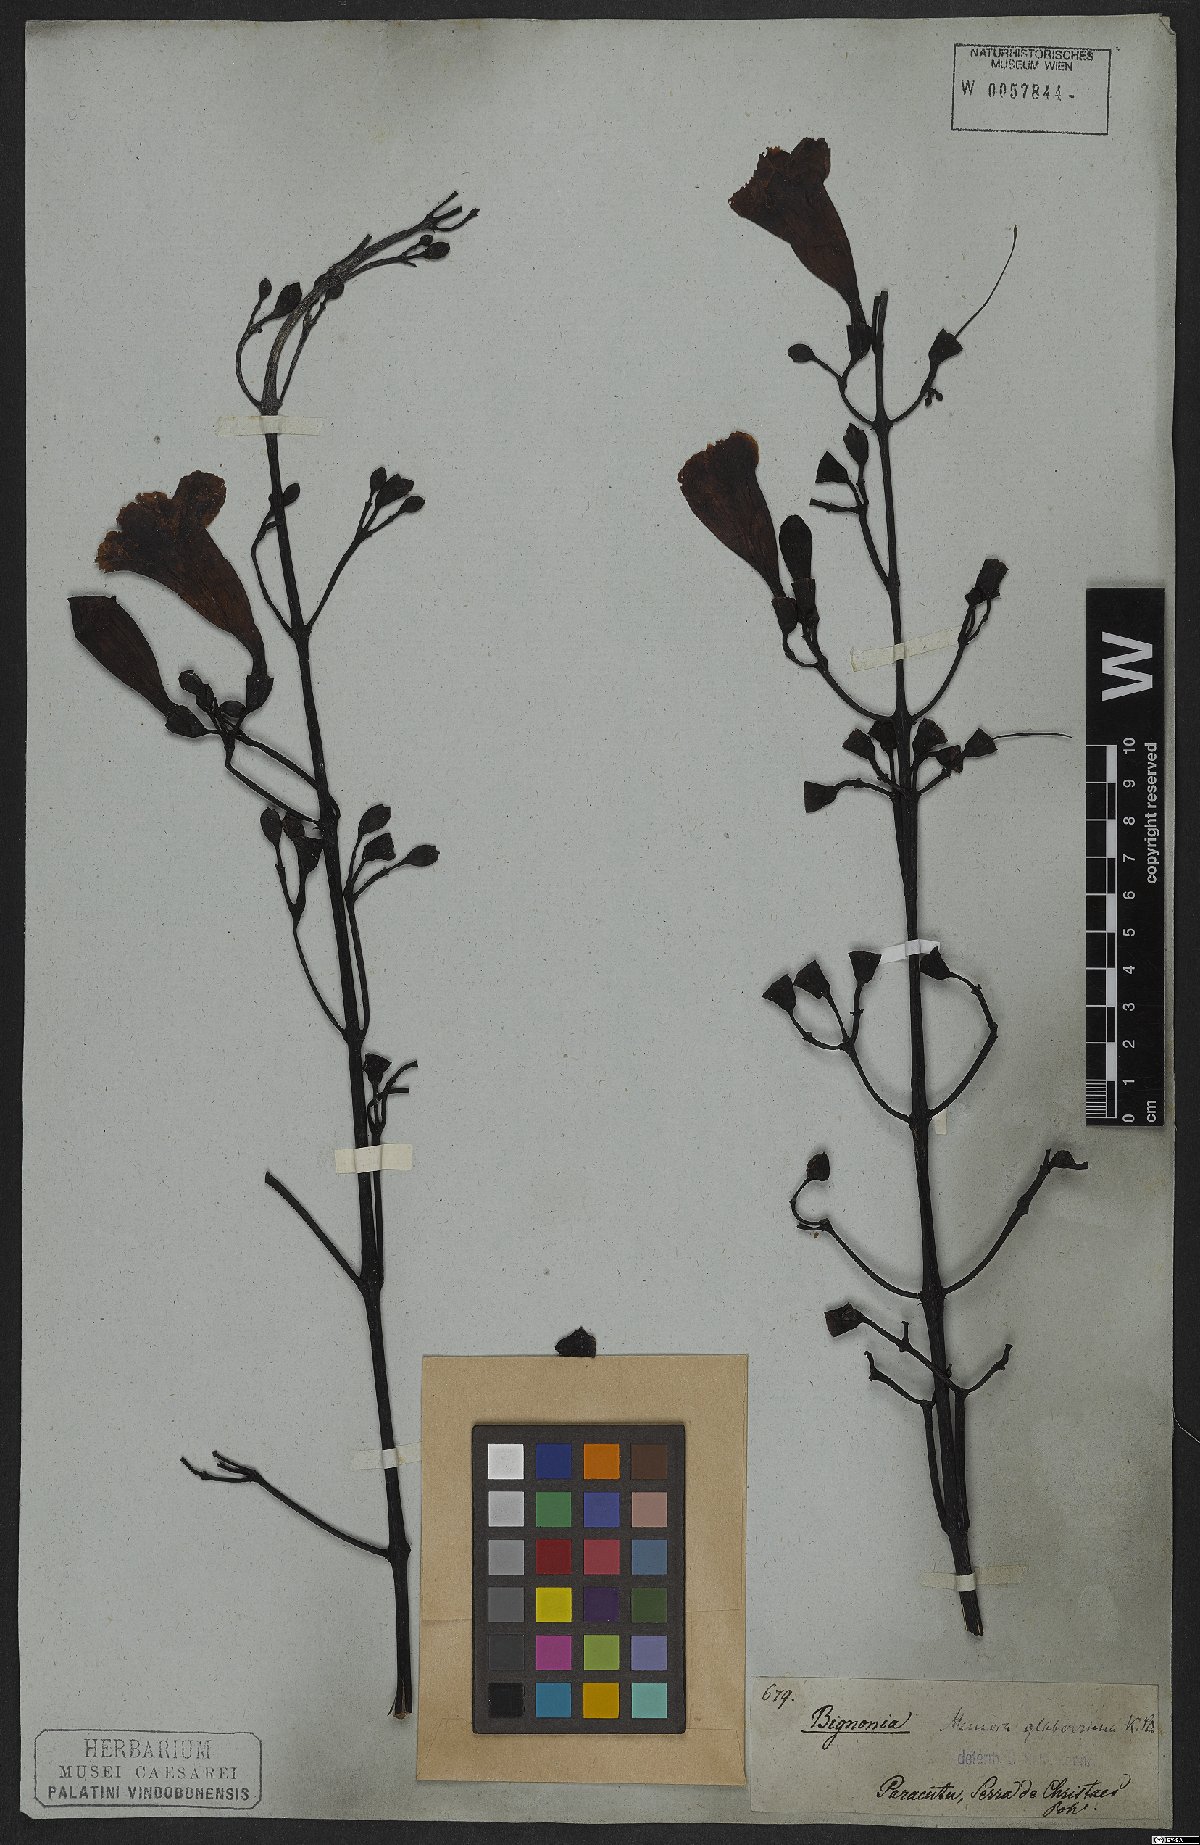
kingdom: Plantae
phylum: Tracheophyta
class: Magnoliopsida
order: Lamiales
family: Bignoniaceae
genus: Adenocalymma
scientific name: Adenocalymma pedunculatum
